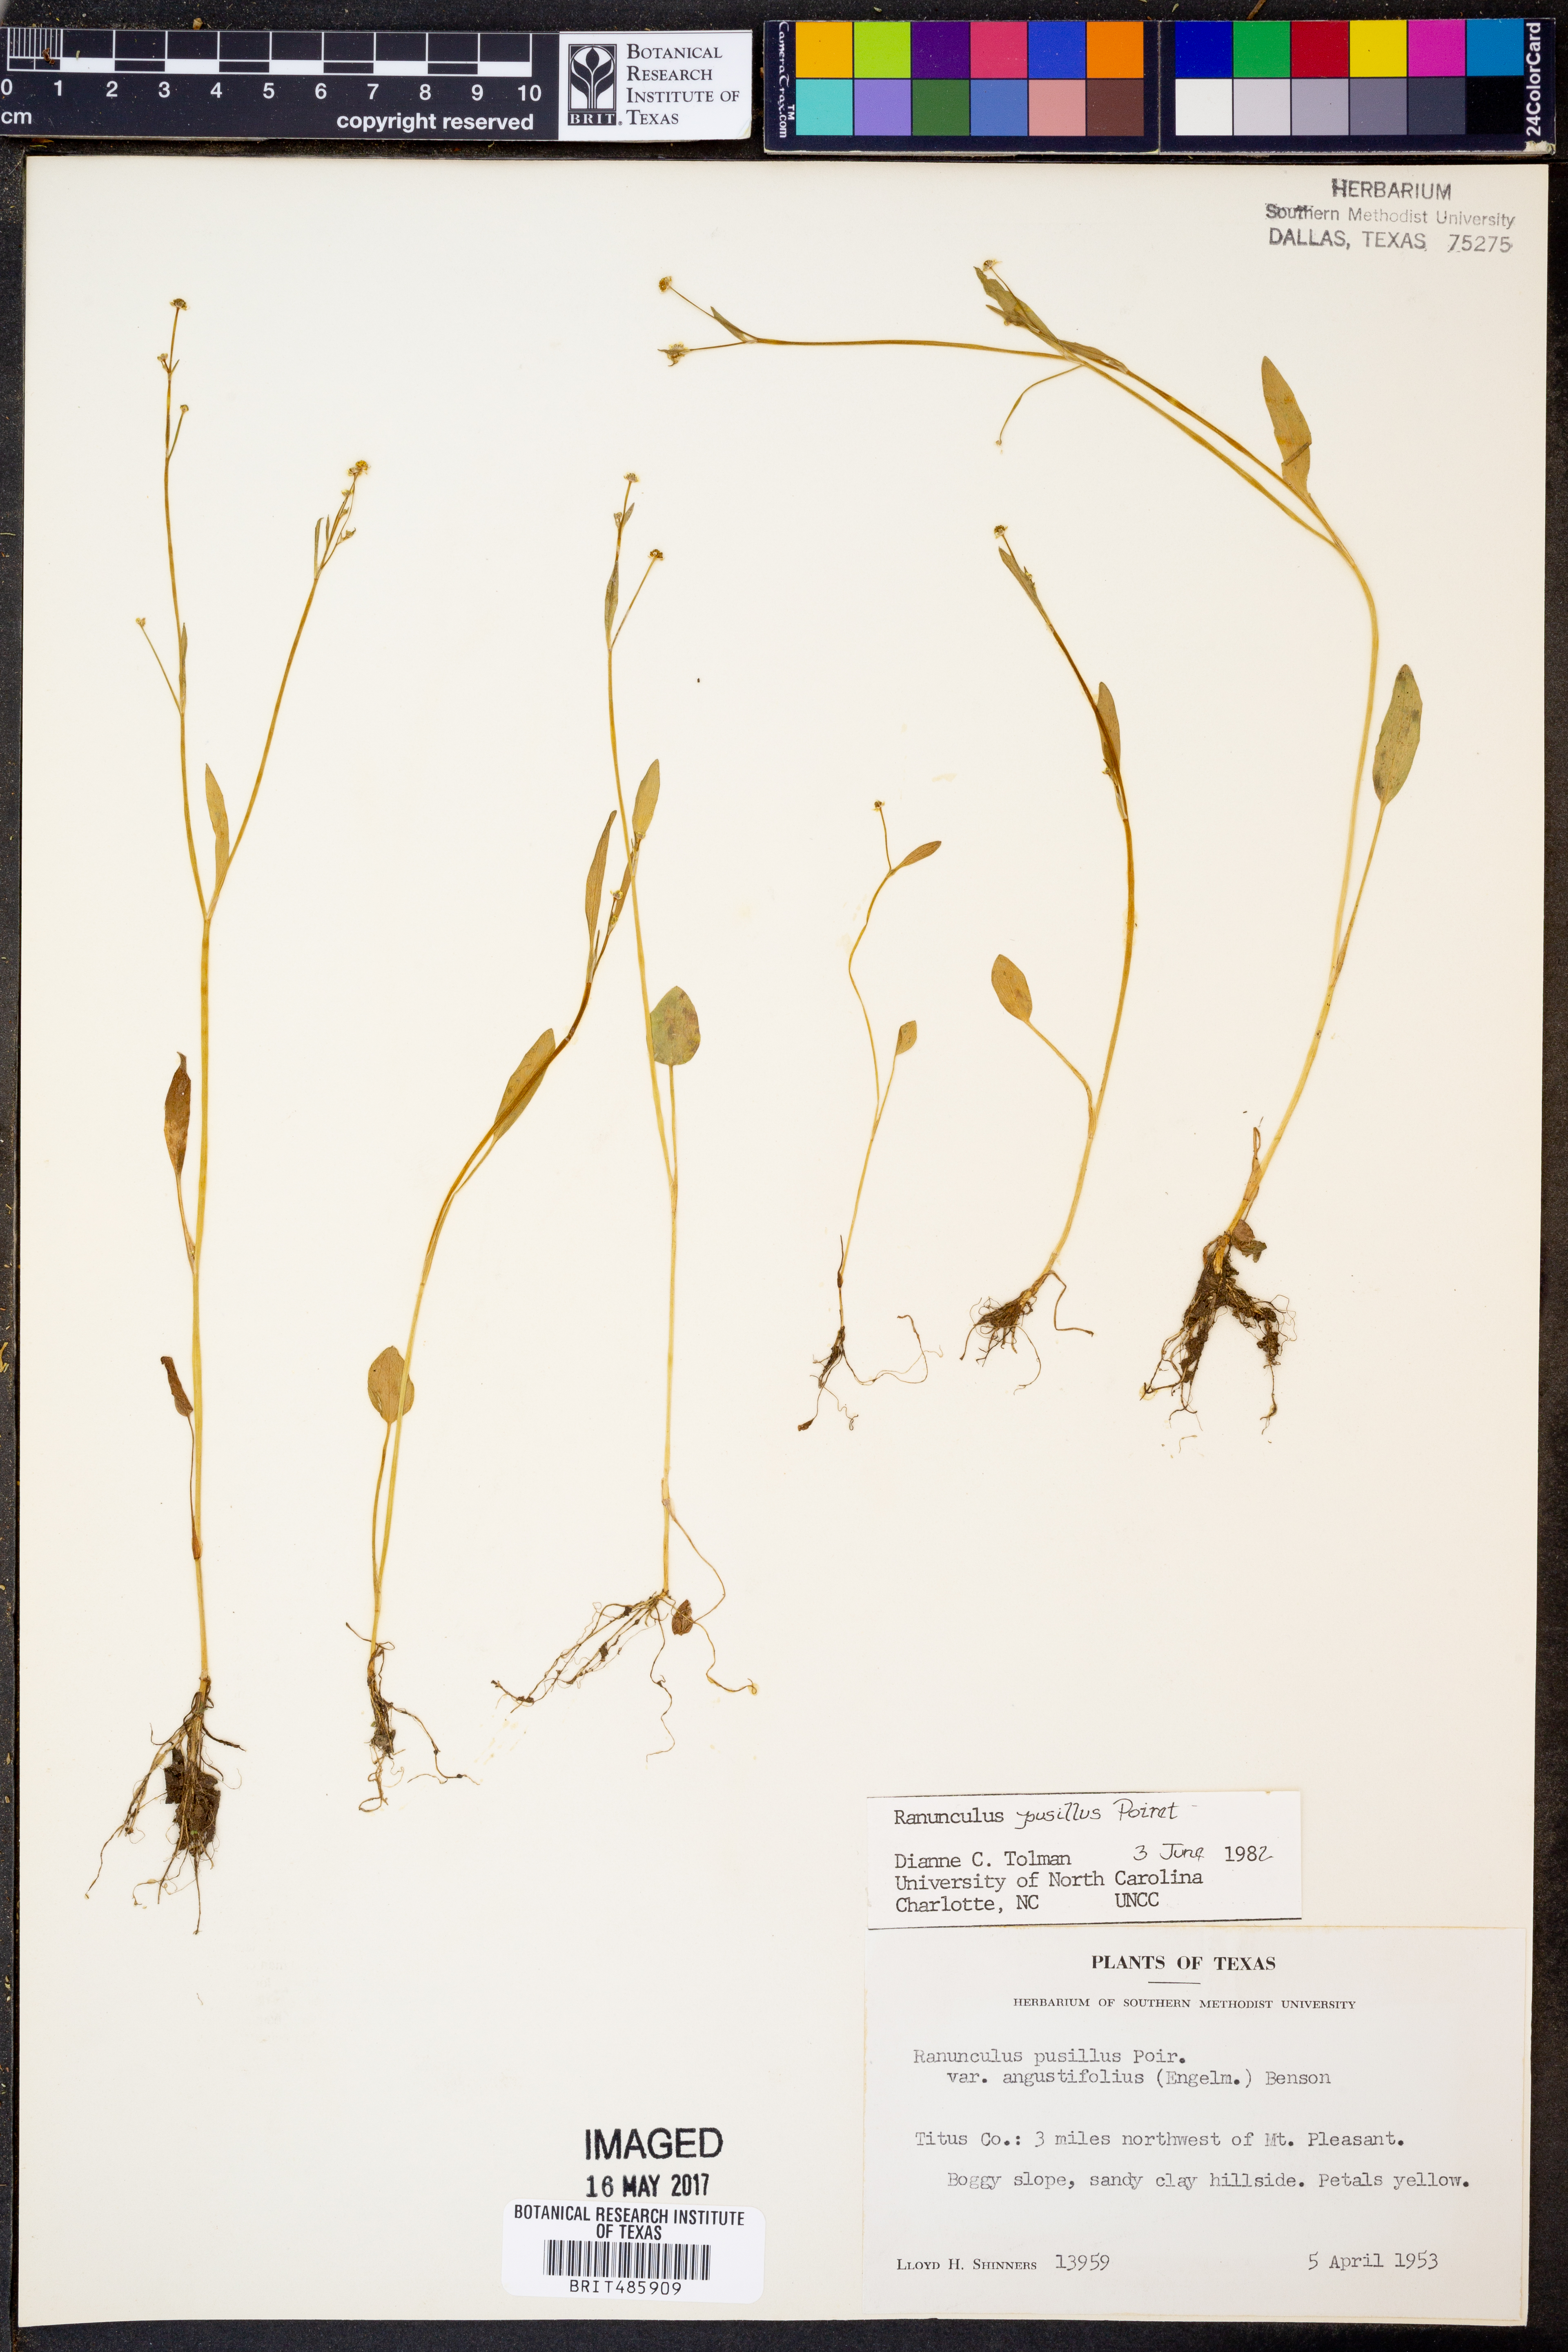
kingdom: Plantae
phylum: Tracheophyta
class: Magnoliopsida
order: Ranunculales
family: Ranunculaceae
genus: Ranunculus
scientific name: Ranunculus pusillus
